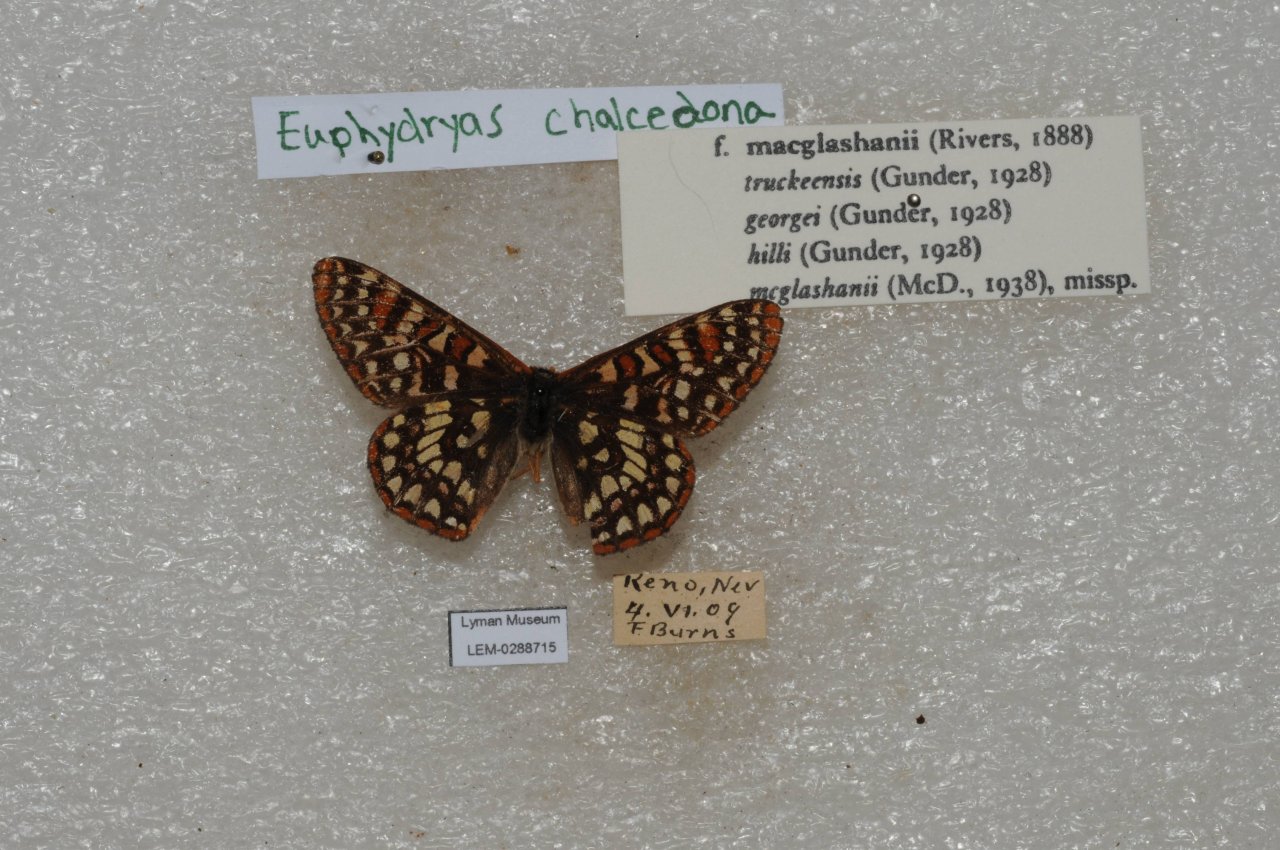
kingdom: Animalia
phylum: Arthropoda
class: Insecta
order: Lepidoptera
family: Nymphalidae
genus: Occidryas
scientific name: Occidryas chalcedona
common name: Chalcedon Checkerspot
